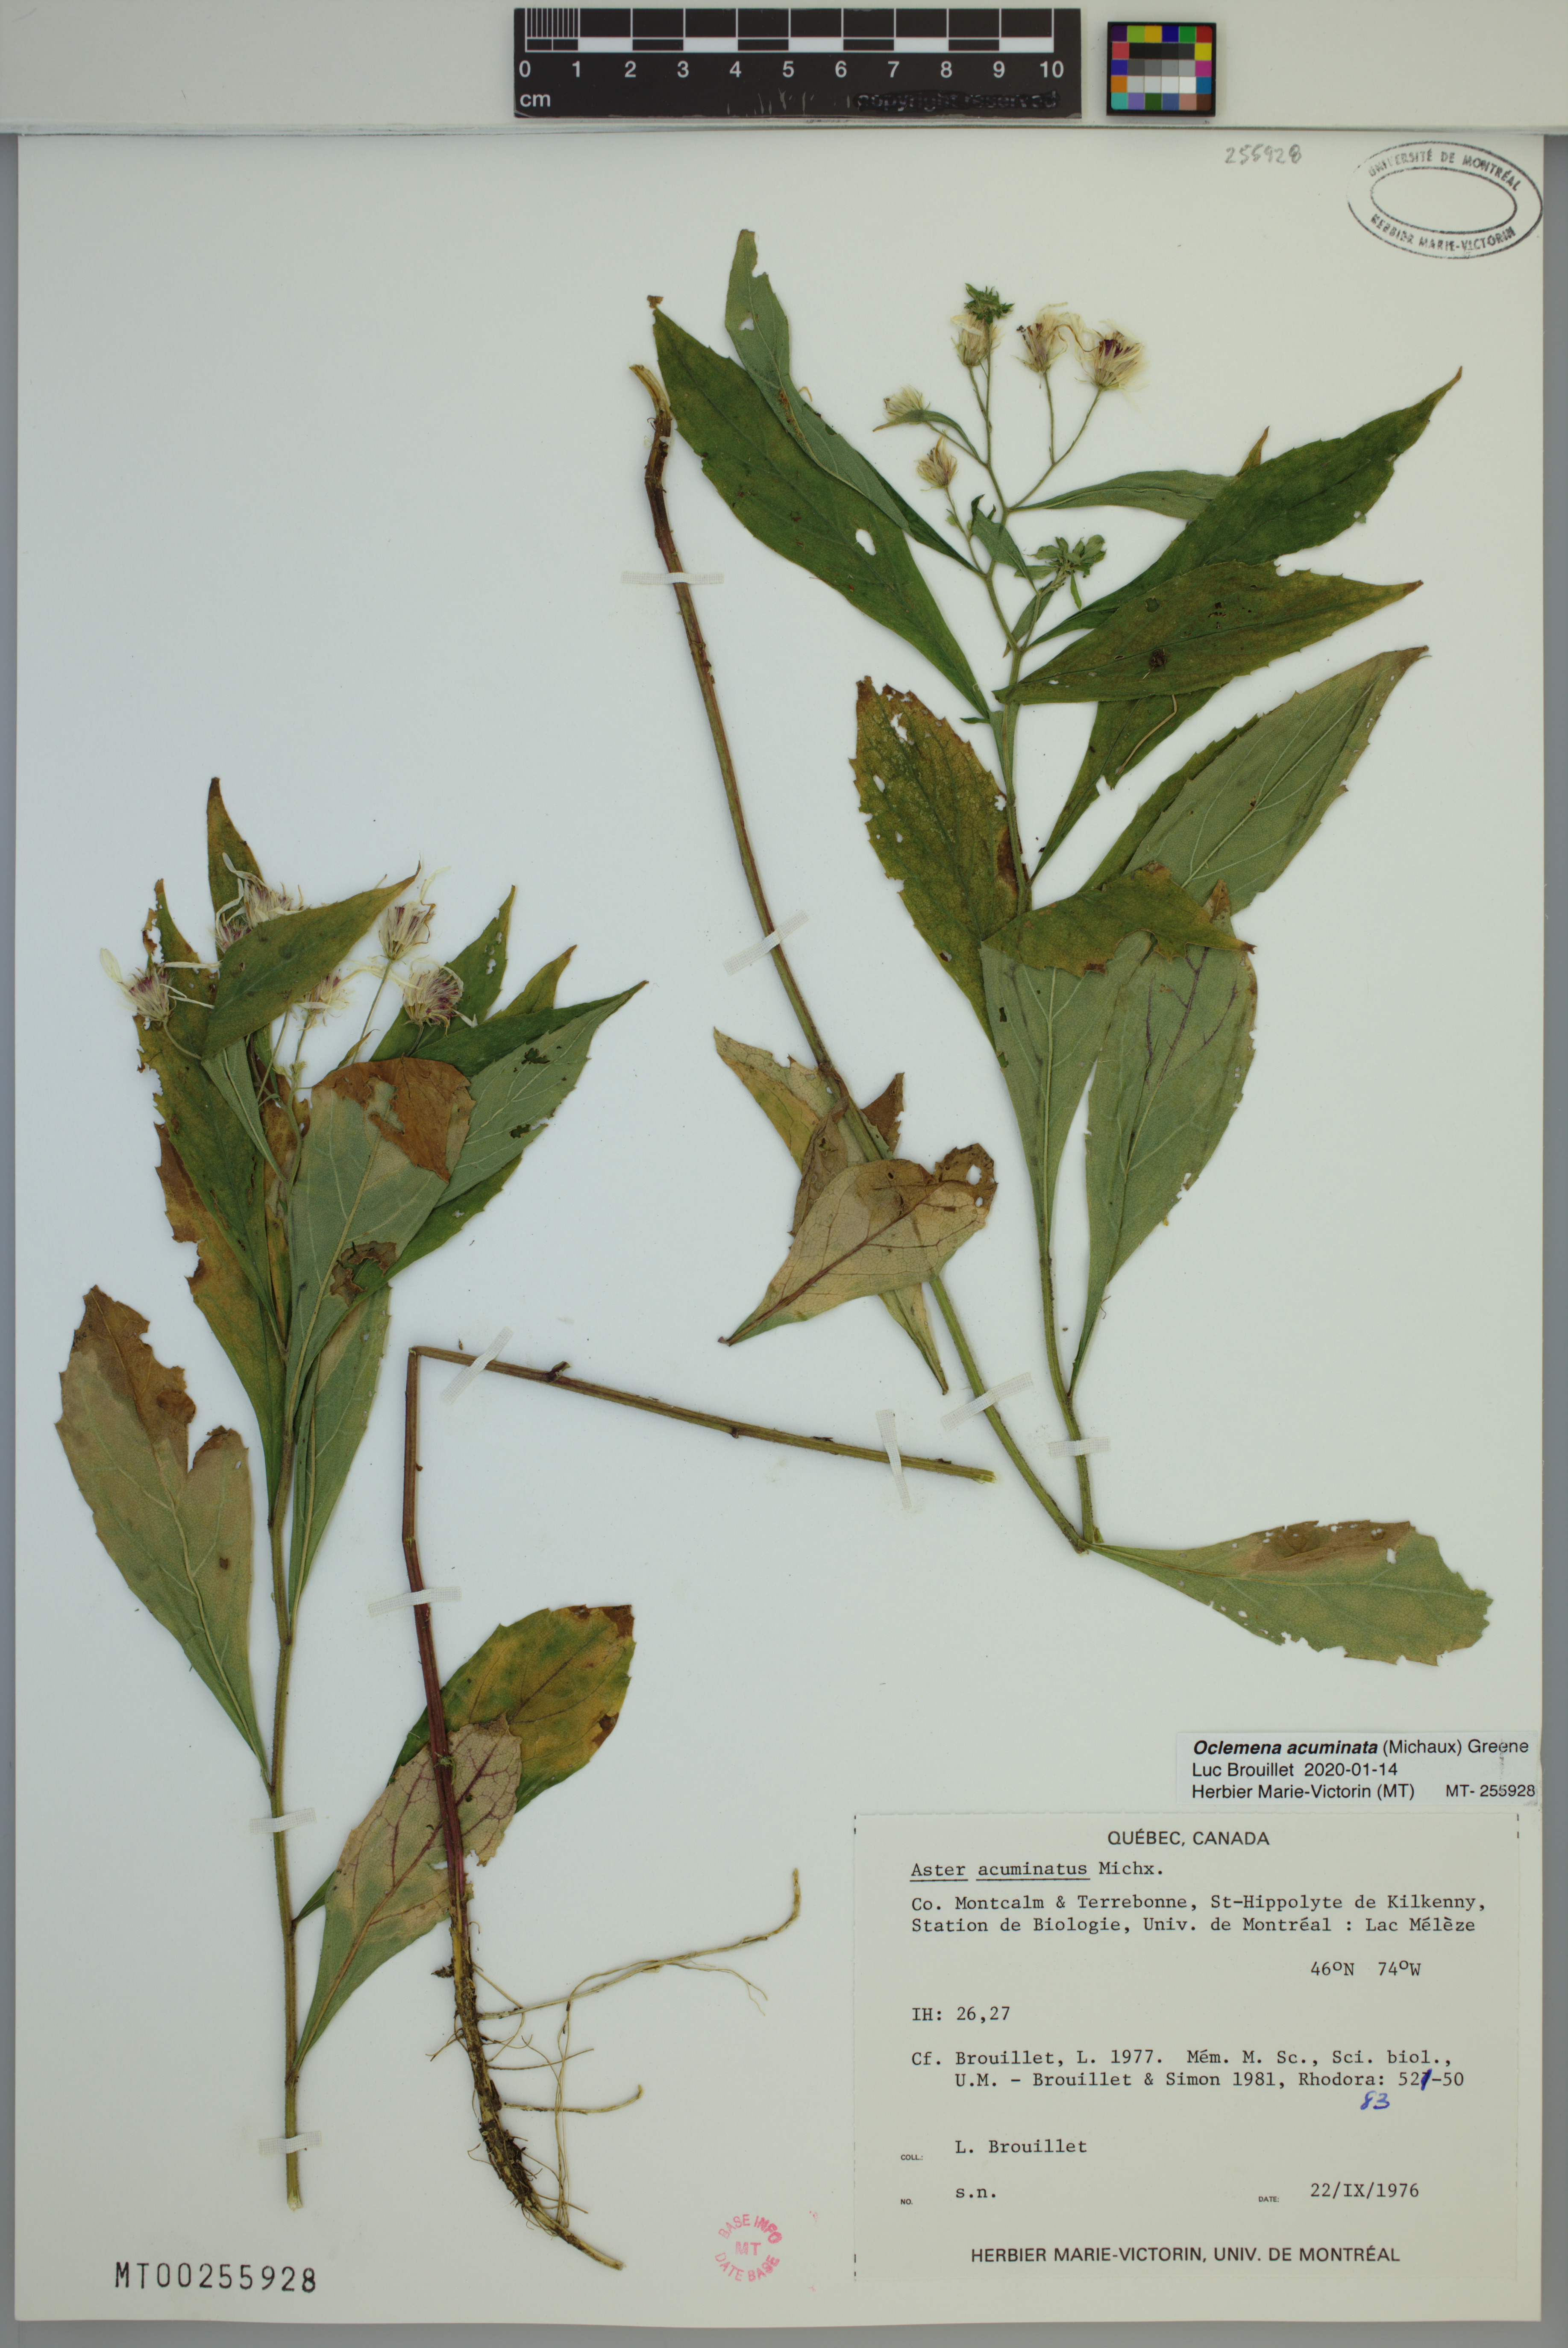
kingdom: Plantae
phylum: Tracheophyta
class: Magnoliopsida
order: Asterales
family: Asteraceae
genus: Oclemena
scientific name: Oclemena acuminata
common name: Mountain aster
